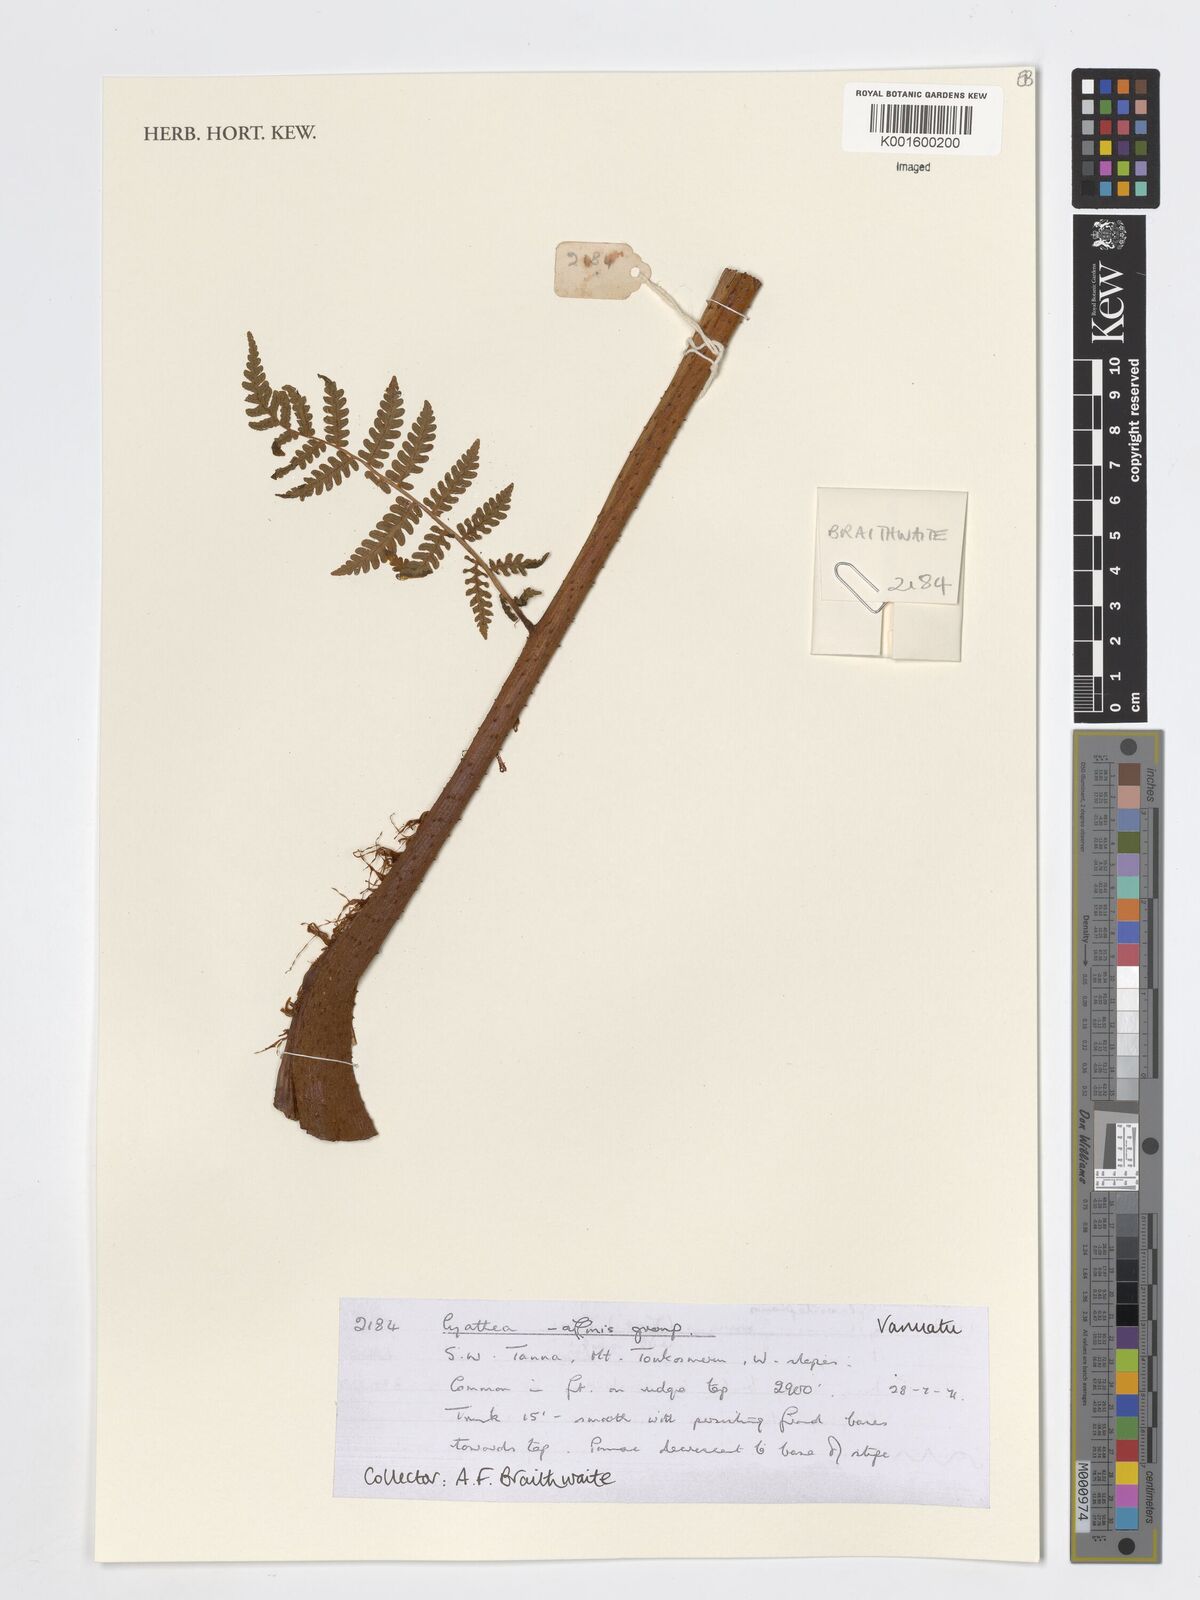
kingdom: Plantae
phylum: Tracheophyta
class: Polypodiopsida
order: Cyatheales
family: Cyatheaceae
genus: Cyathea
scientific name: Cyathea
